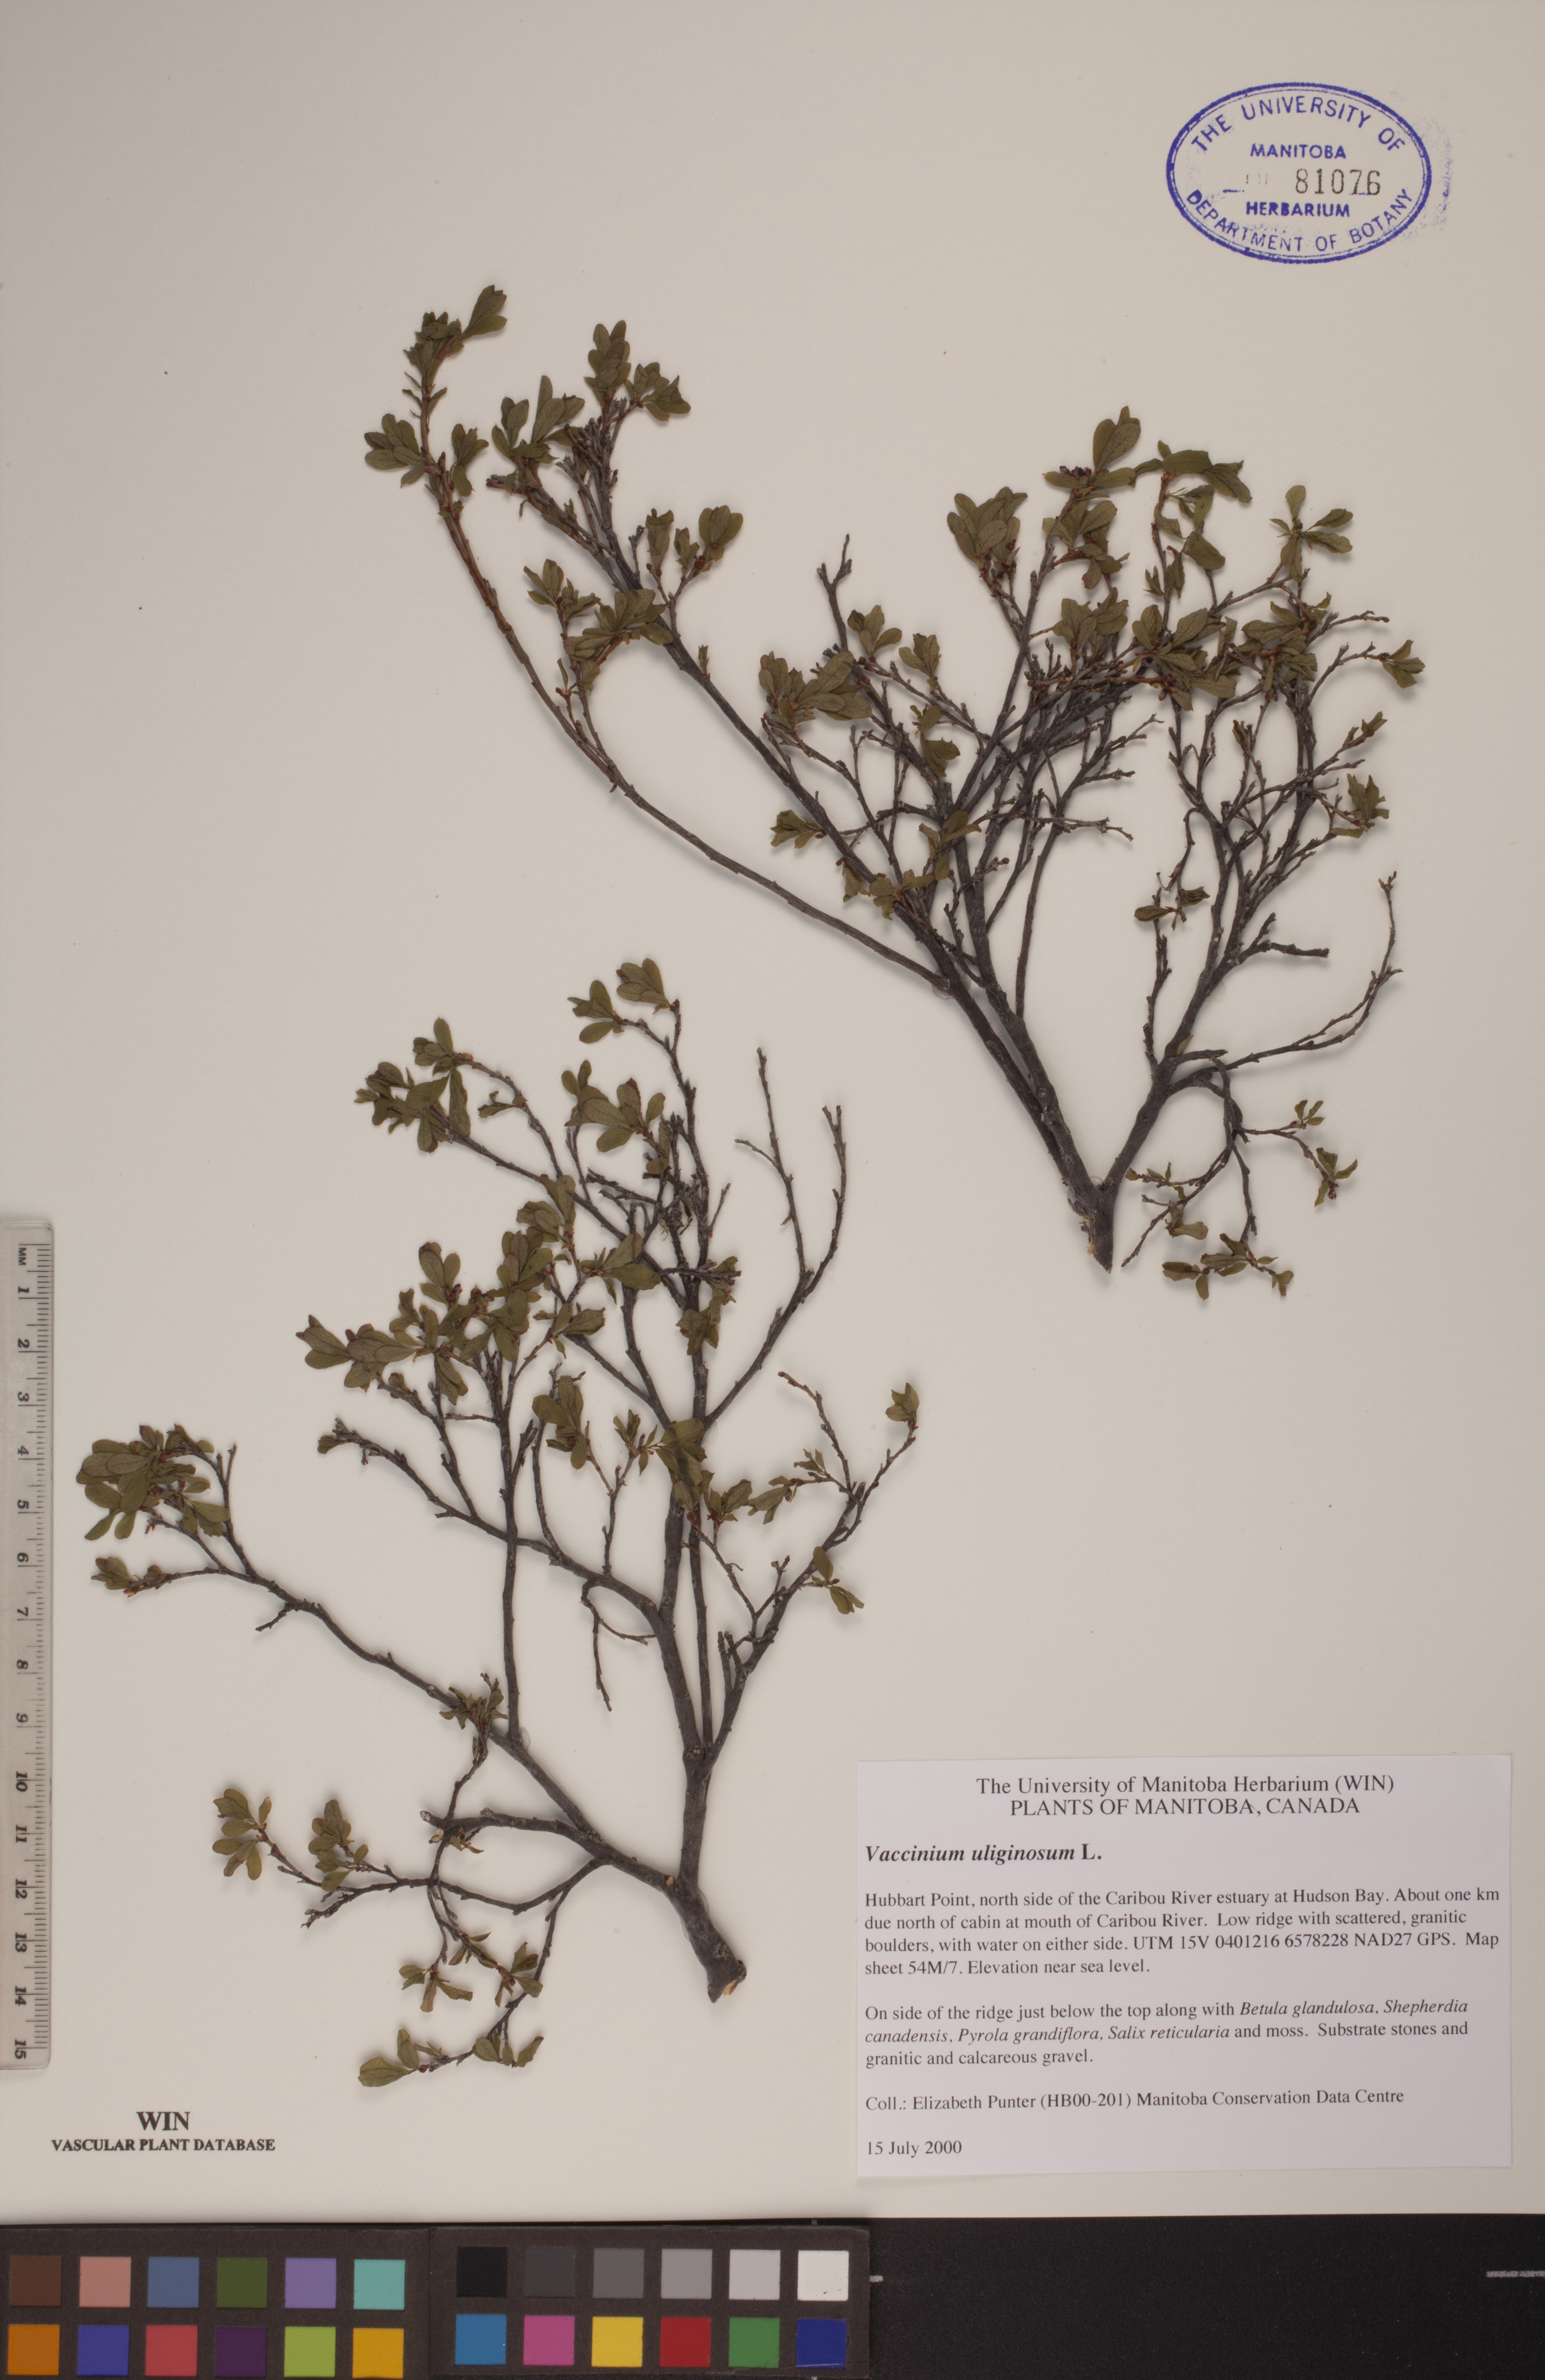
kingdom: Plantae
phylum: Tracheophyta
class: Magnoliopsida
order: Ericales
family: Ericaceae
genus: Vaccinium
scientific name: Vaccinium uliginosum
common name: Bog bilberry
